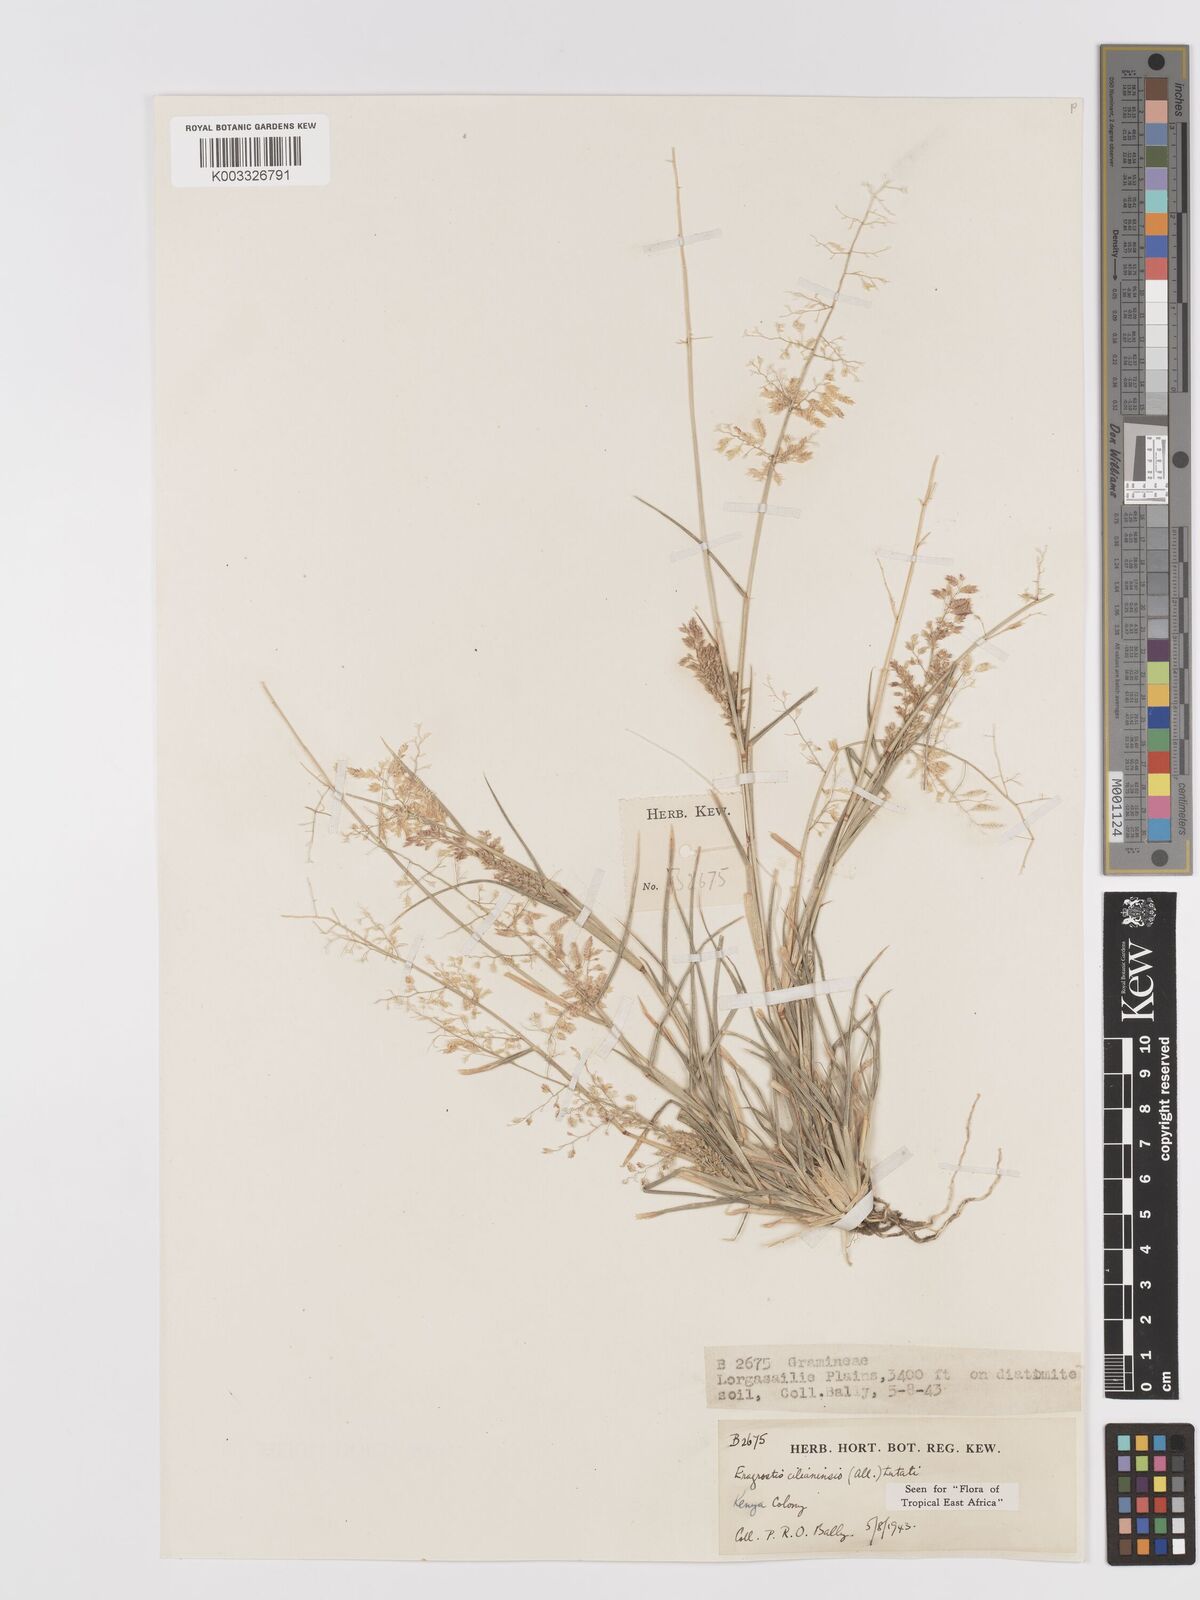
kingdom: Plantae
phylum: Tracheophyta
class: Liliopsida
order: Poales
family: Poaceae
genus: Eragrostis
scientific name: Eragrostis cilianensis
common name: Stinkgrass
